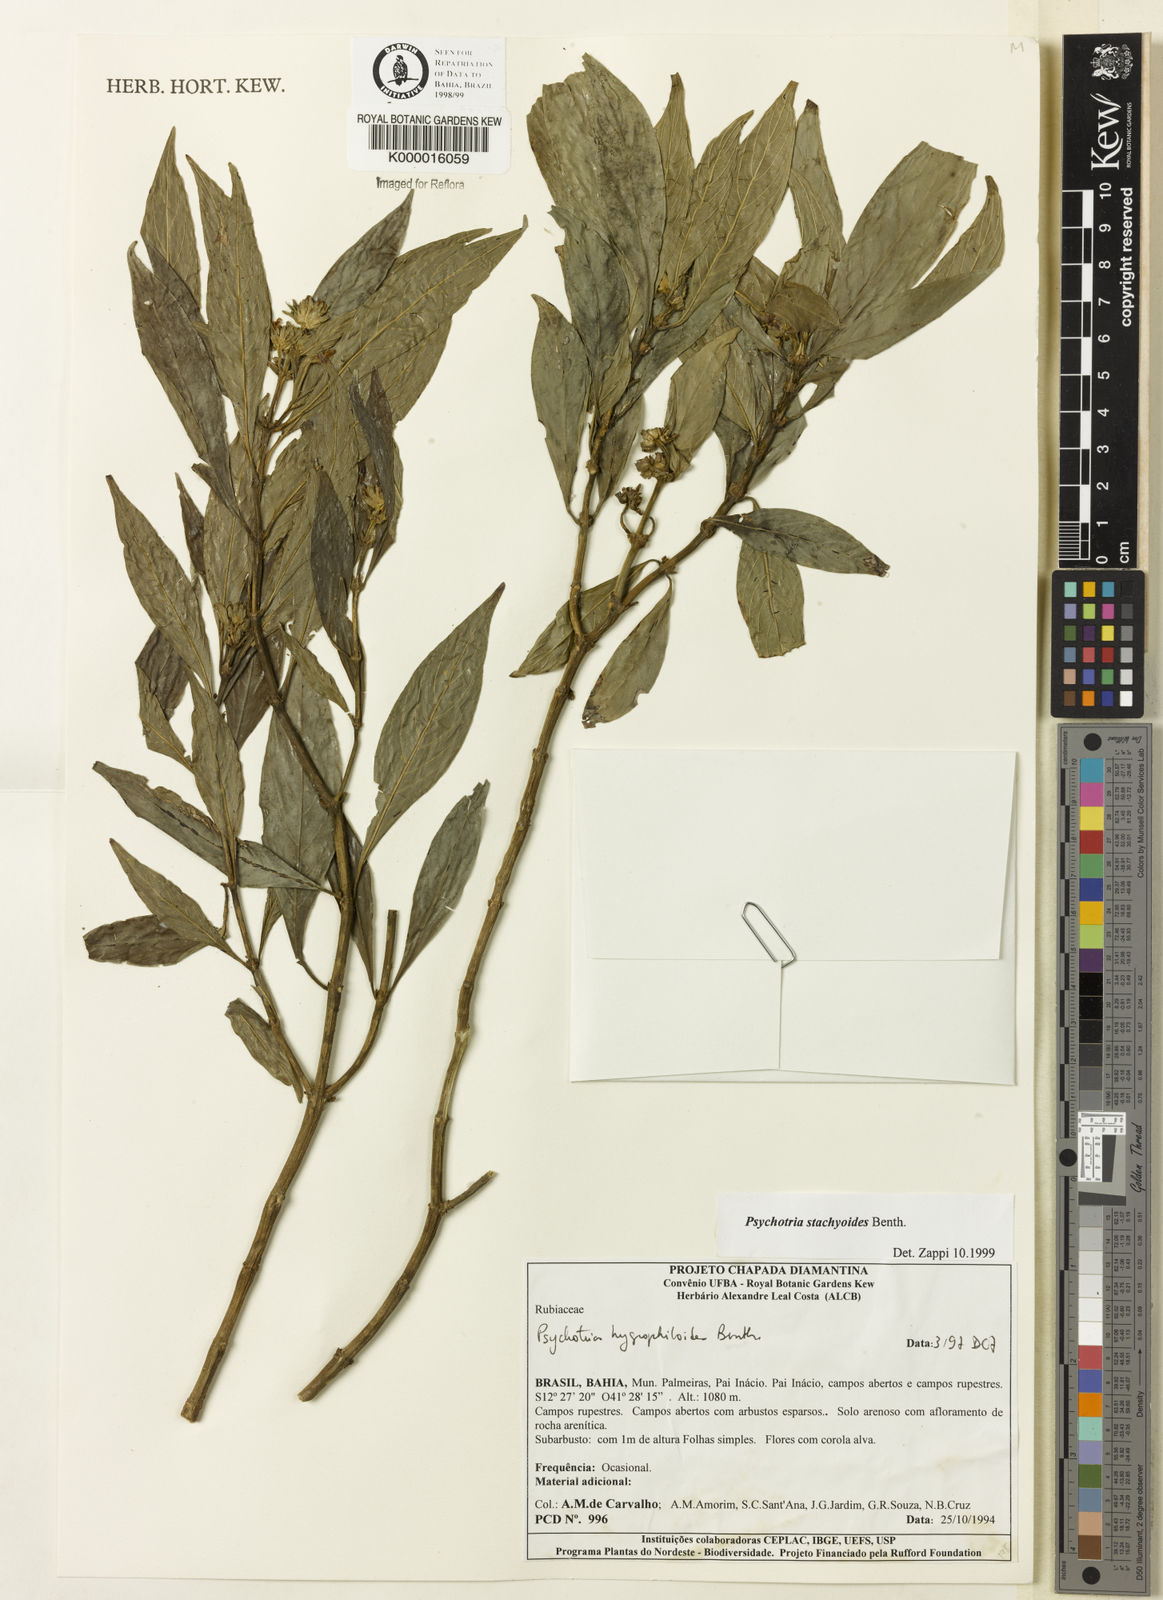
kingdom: Plantae
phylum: Tracheophyta
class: Magnoliopsida
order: Gentianales
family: Rubiaceae
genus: Psychotria
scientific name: Psychotria stachyoides
